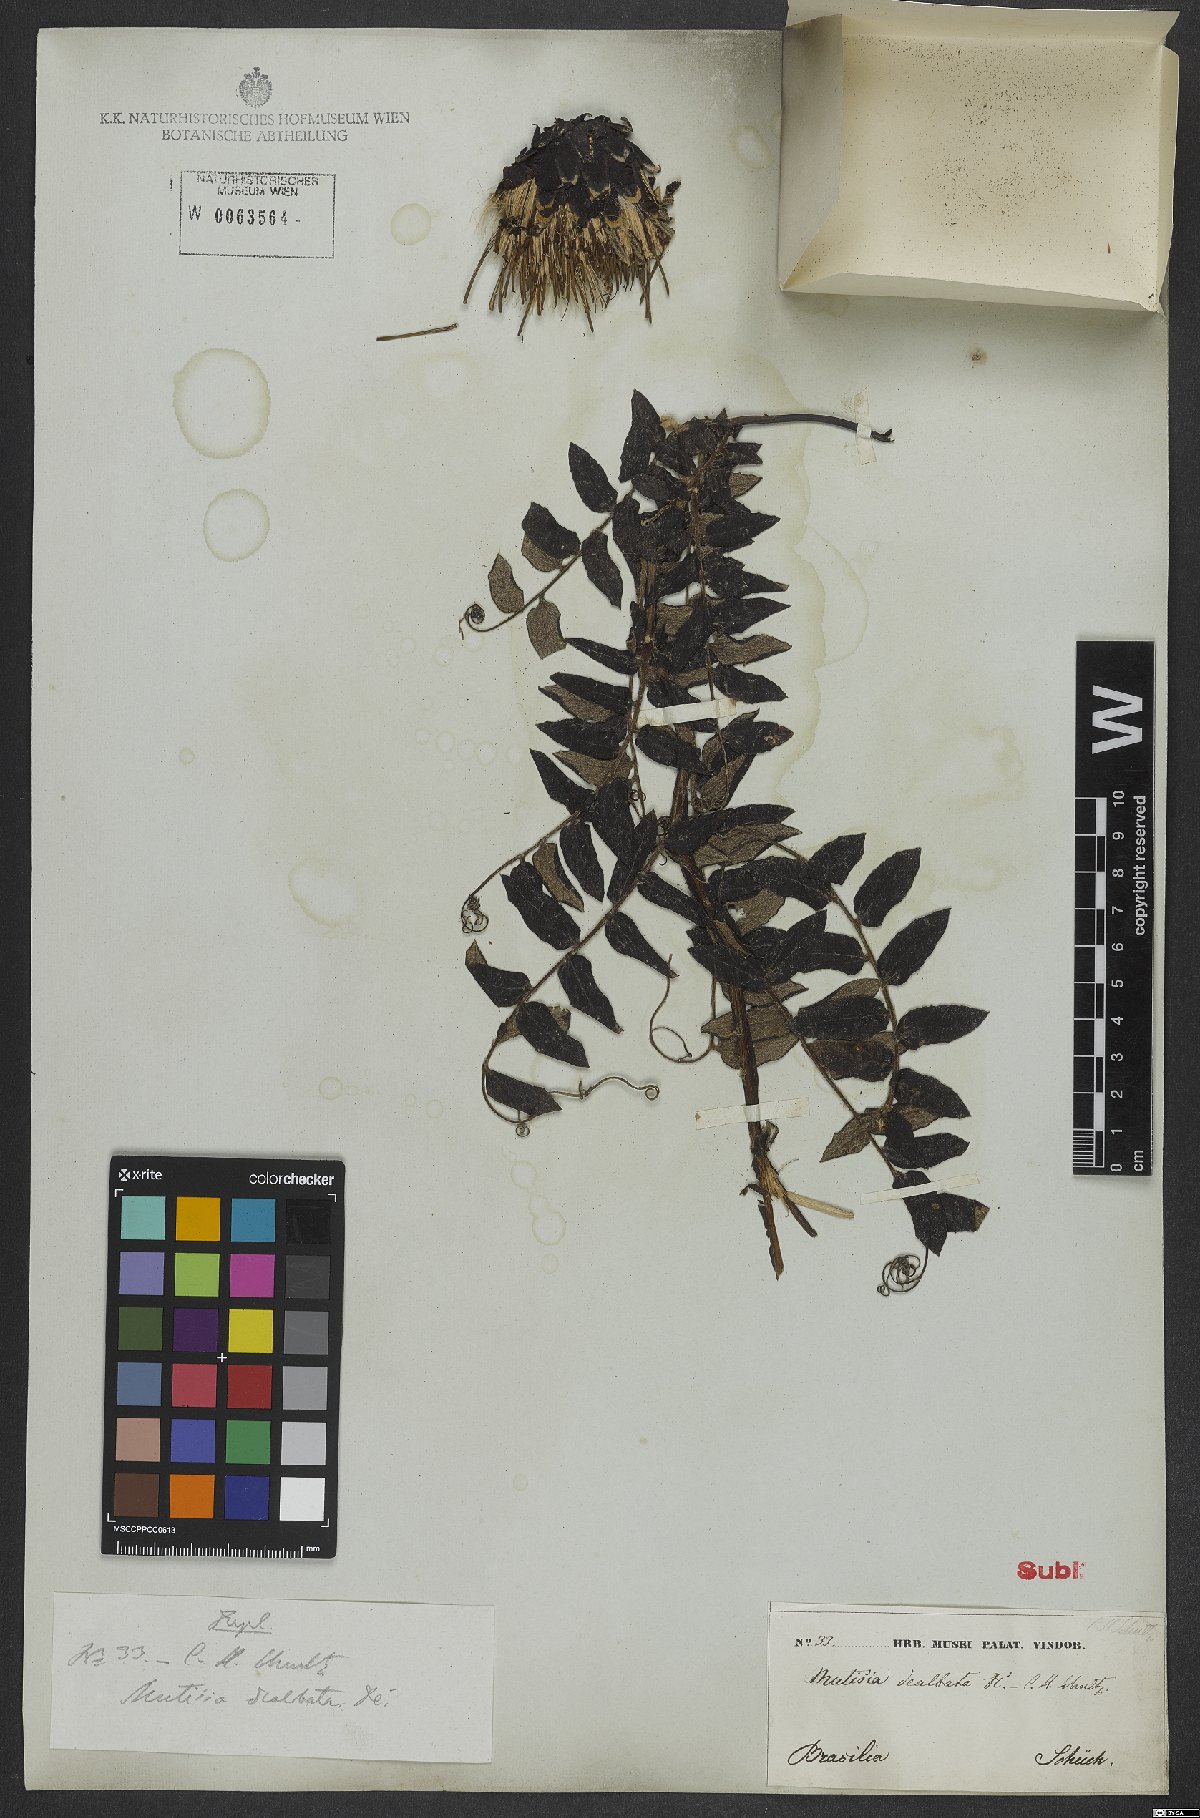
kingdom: Plantae
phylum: Tracheophyta
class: Magnoliopsida
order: Asterales
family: Asteraceae
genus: Mutisia
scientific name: Mutisia coccinea
